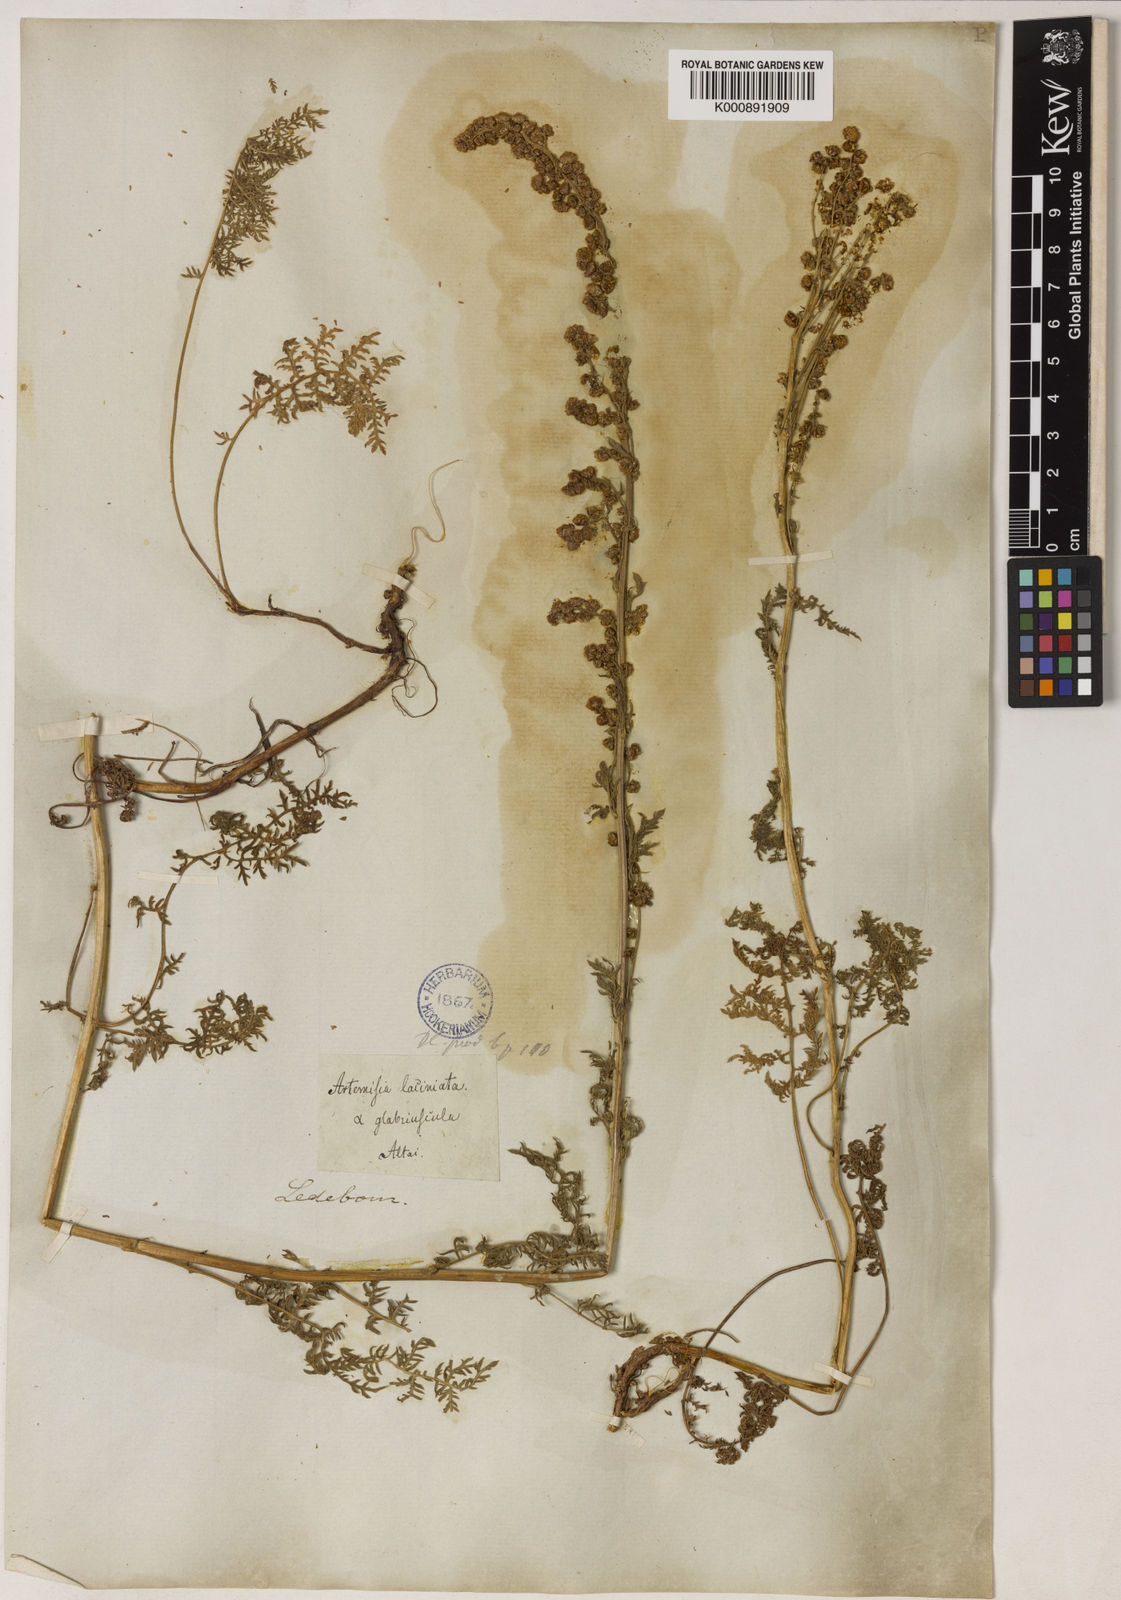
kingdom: Plantae
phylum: Tracheophyta
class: Magnoliopsida
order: Asterales
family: Asteraceae
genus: Artemisia
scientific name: Artemisia tanacetifolia
